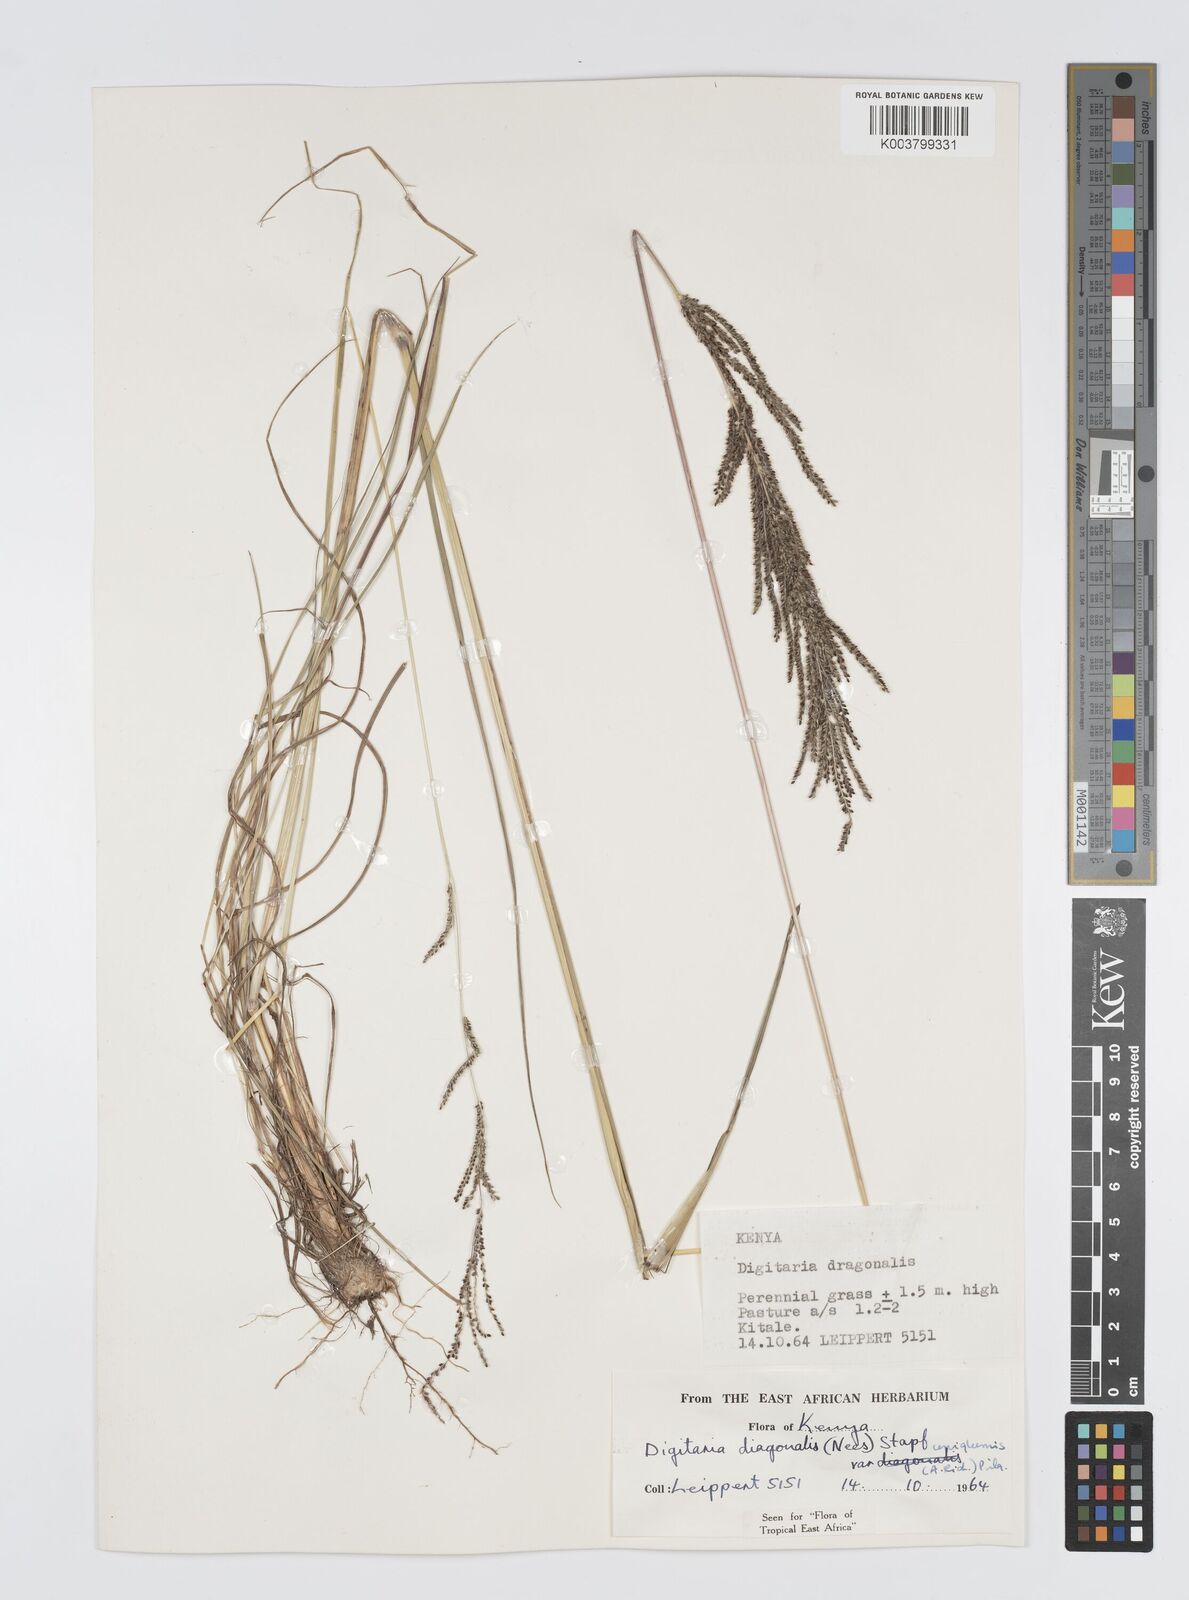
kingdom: Plantae
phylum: Tracheophyta
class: Liliopsida
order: Poales
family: Poaceae
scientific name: Poaceae
